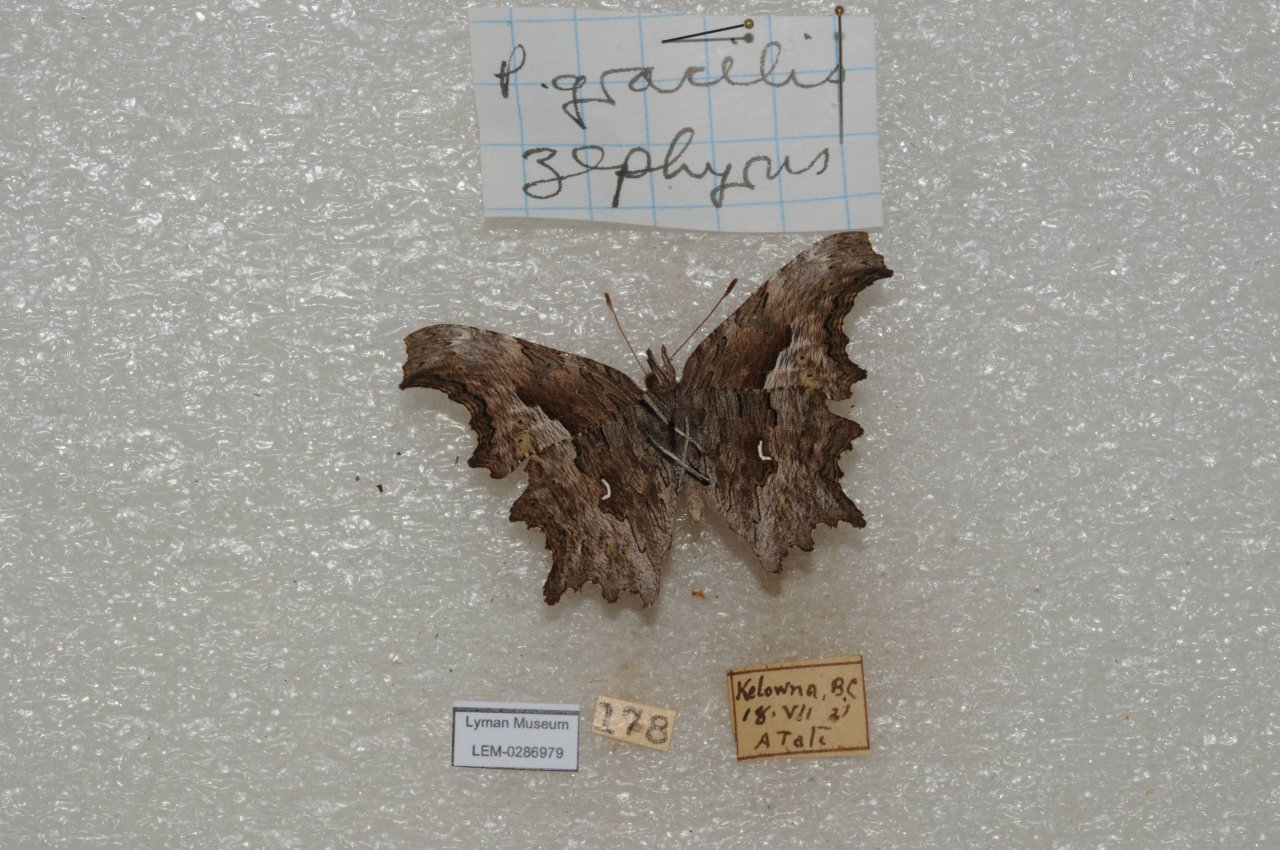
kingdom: Animalia
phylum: Arthropoda
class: Insecta
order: Lepidoptera
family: Nymphalidae
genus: Polygonia
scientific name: Polygonia gracilis
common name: Hoary Comma
